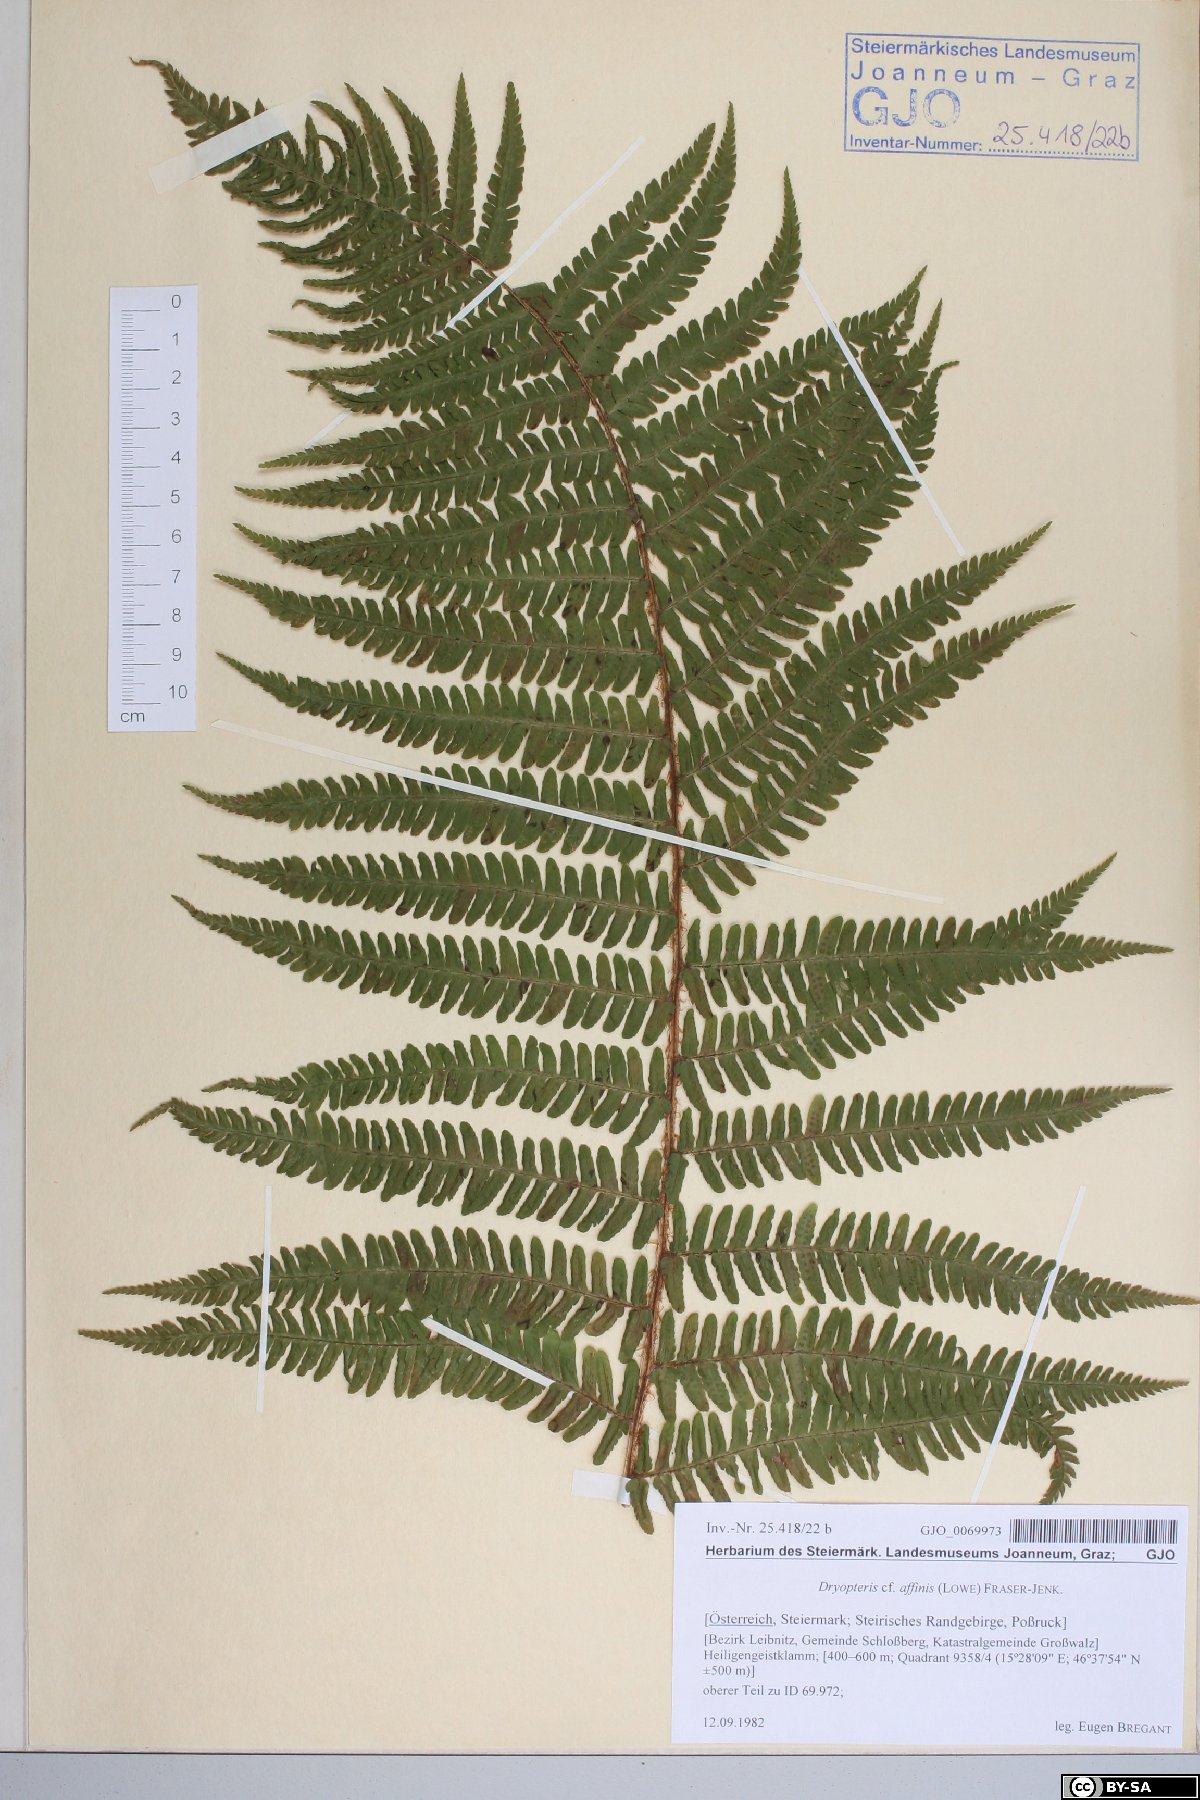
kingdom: Plantae
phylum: Tracheophyta
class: Polypodiopsida
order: Polypodiales
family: Dryopteridaceae
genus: Dryopteris
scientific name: Dryopteris affinis
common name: Scaly male fern
